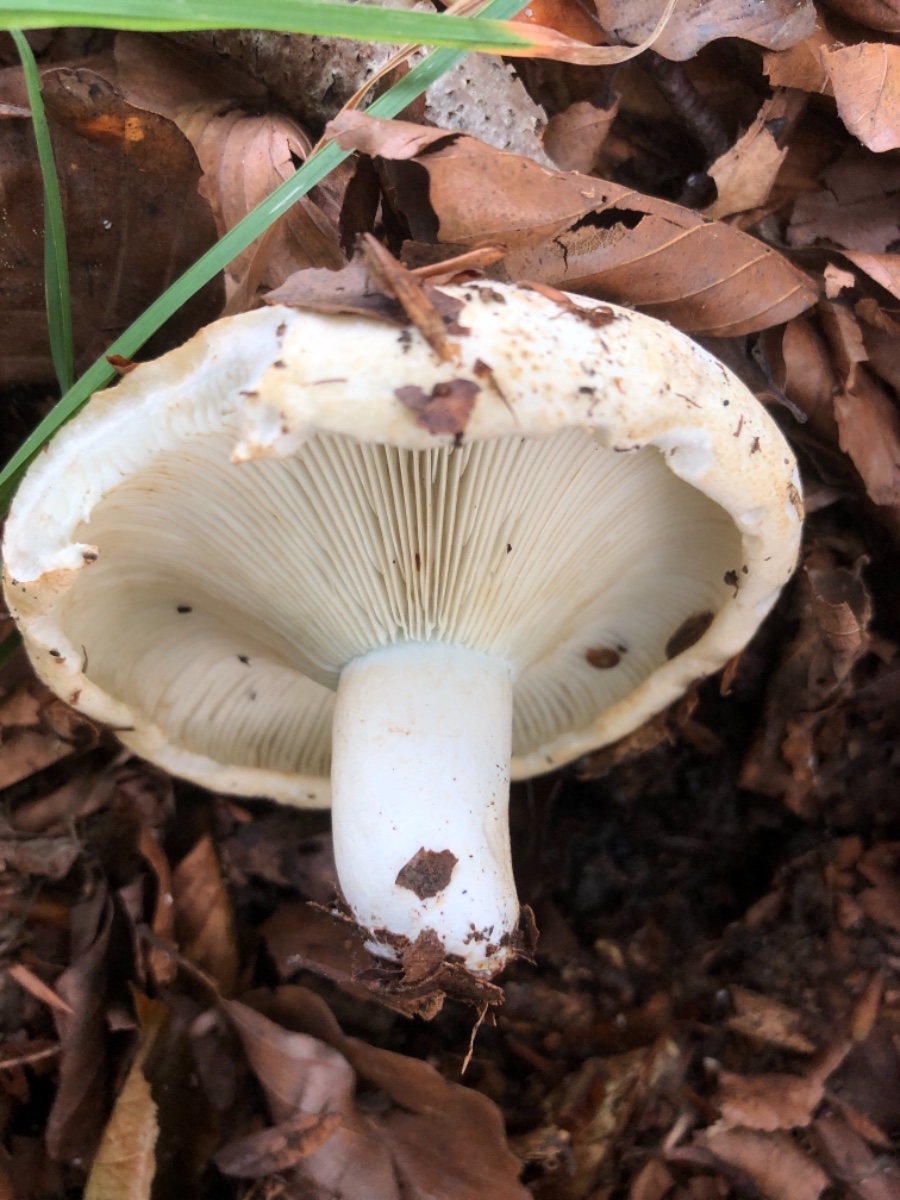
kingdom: Fungi
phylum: Basidiomycota
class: Agaricomycetes
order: Russulales
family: Russulaceae
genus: Russula
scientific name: Russula chloroides
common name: grønhalset tragt-skørhat
